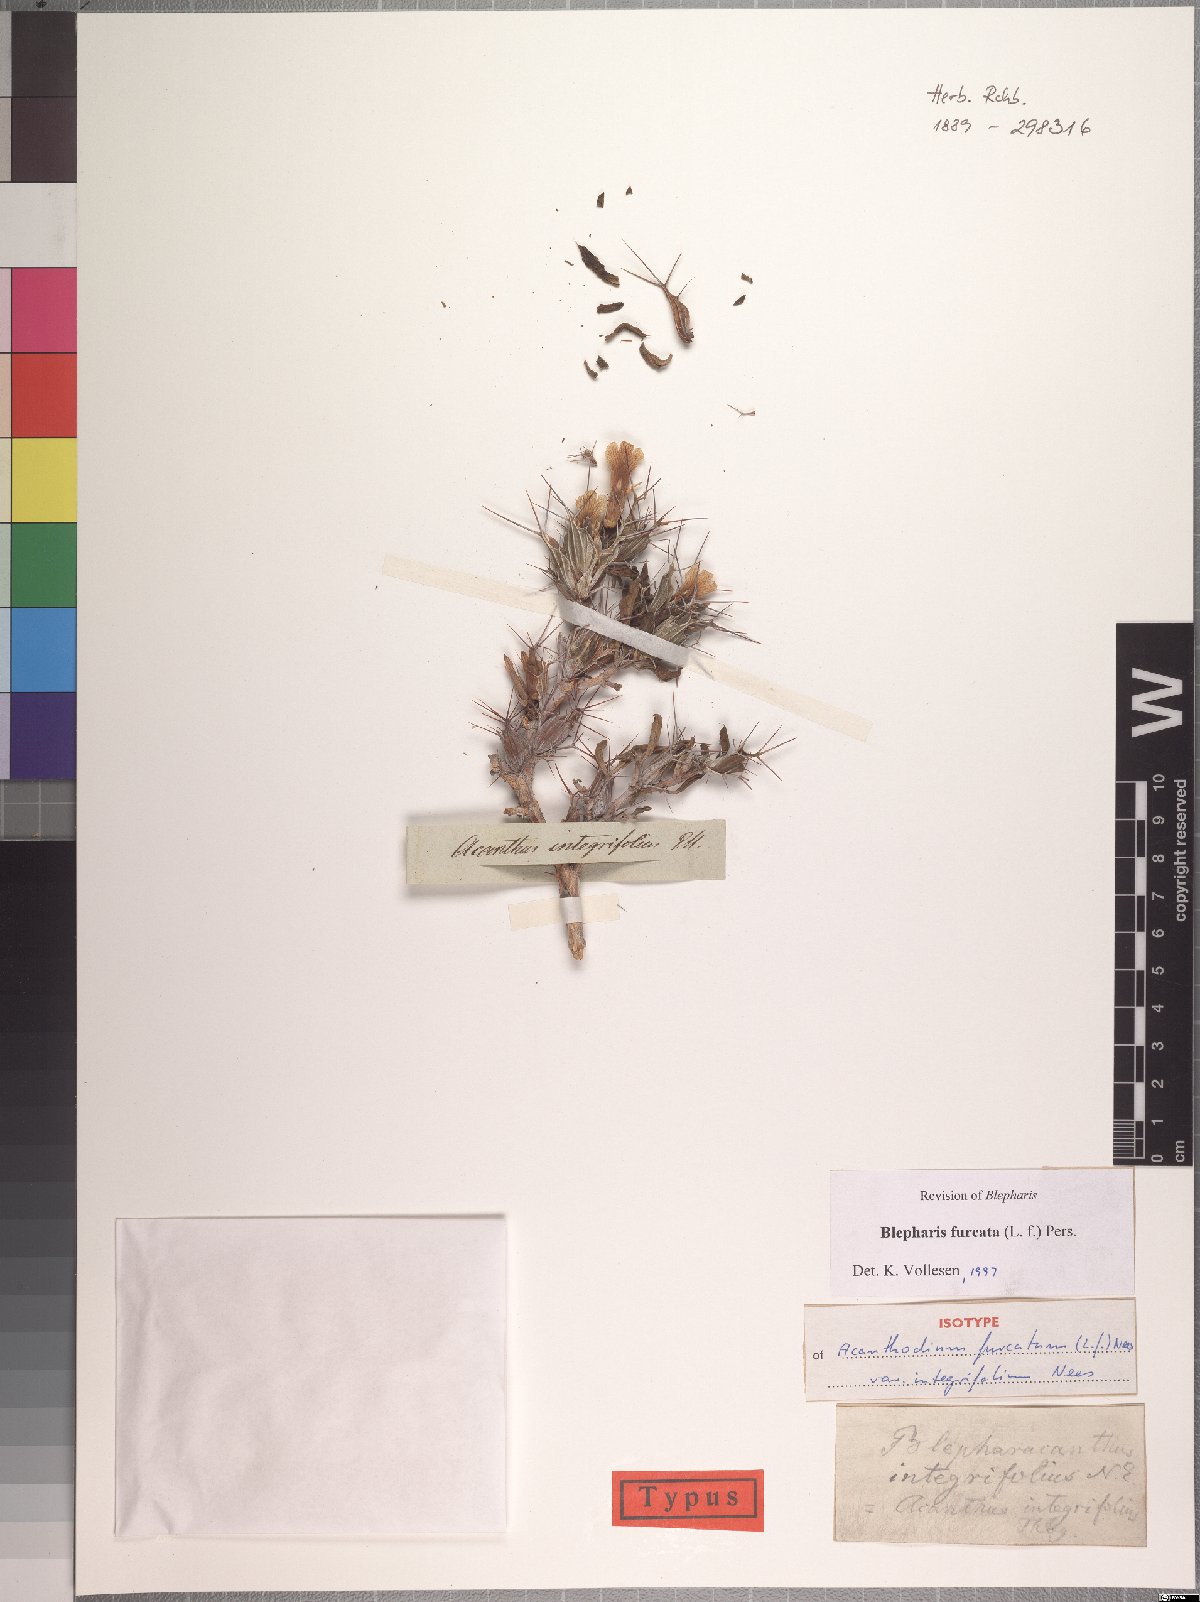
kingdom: Plantae
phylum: Tracheophyta
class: Magnoliopsida
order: Lamiales
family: Acanthaceae
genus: Blepharis
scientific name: Blepharis furcata
